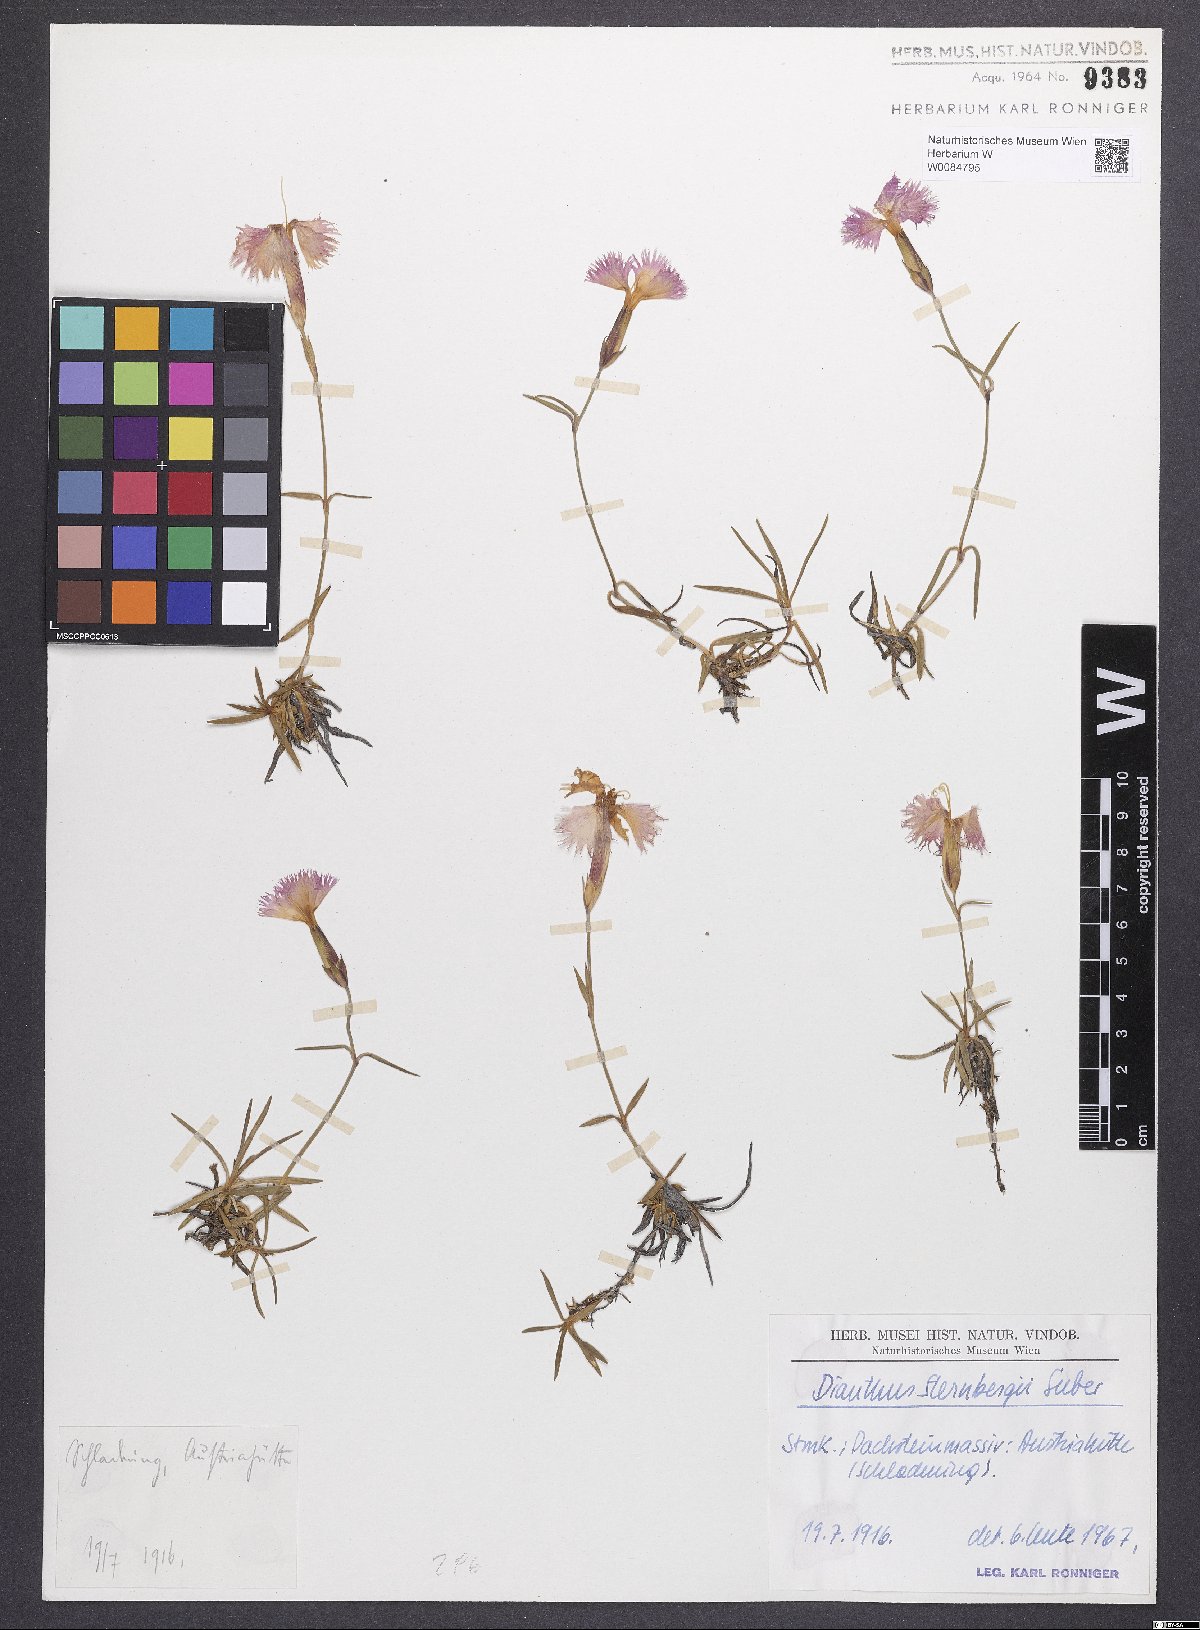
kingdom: Plantae
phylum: Tracheophyta
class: Magnoliopsida
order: Caryophyllales
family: Caryophyllaceae
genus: Dianthus
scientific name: Dianthus monspessulanus
